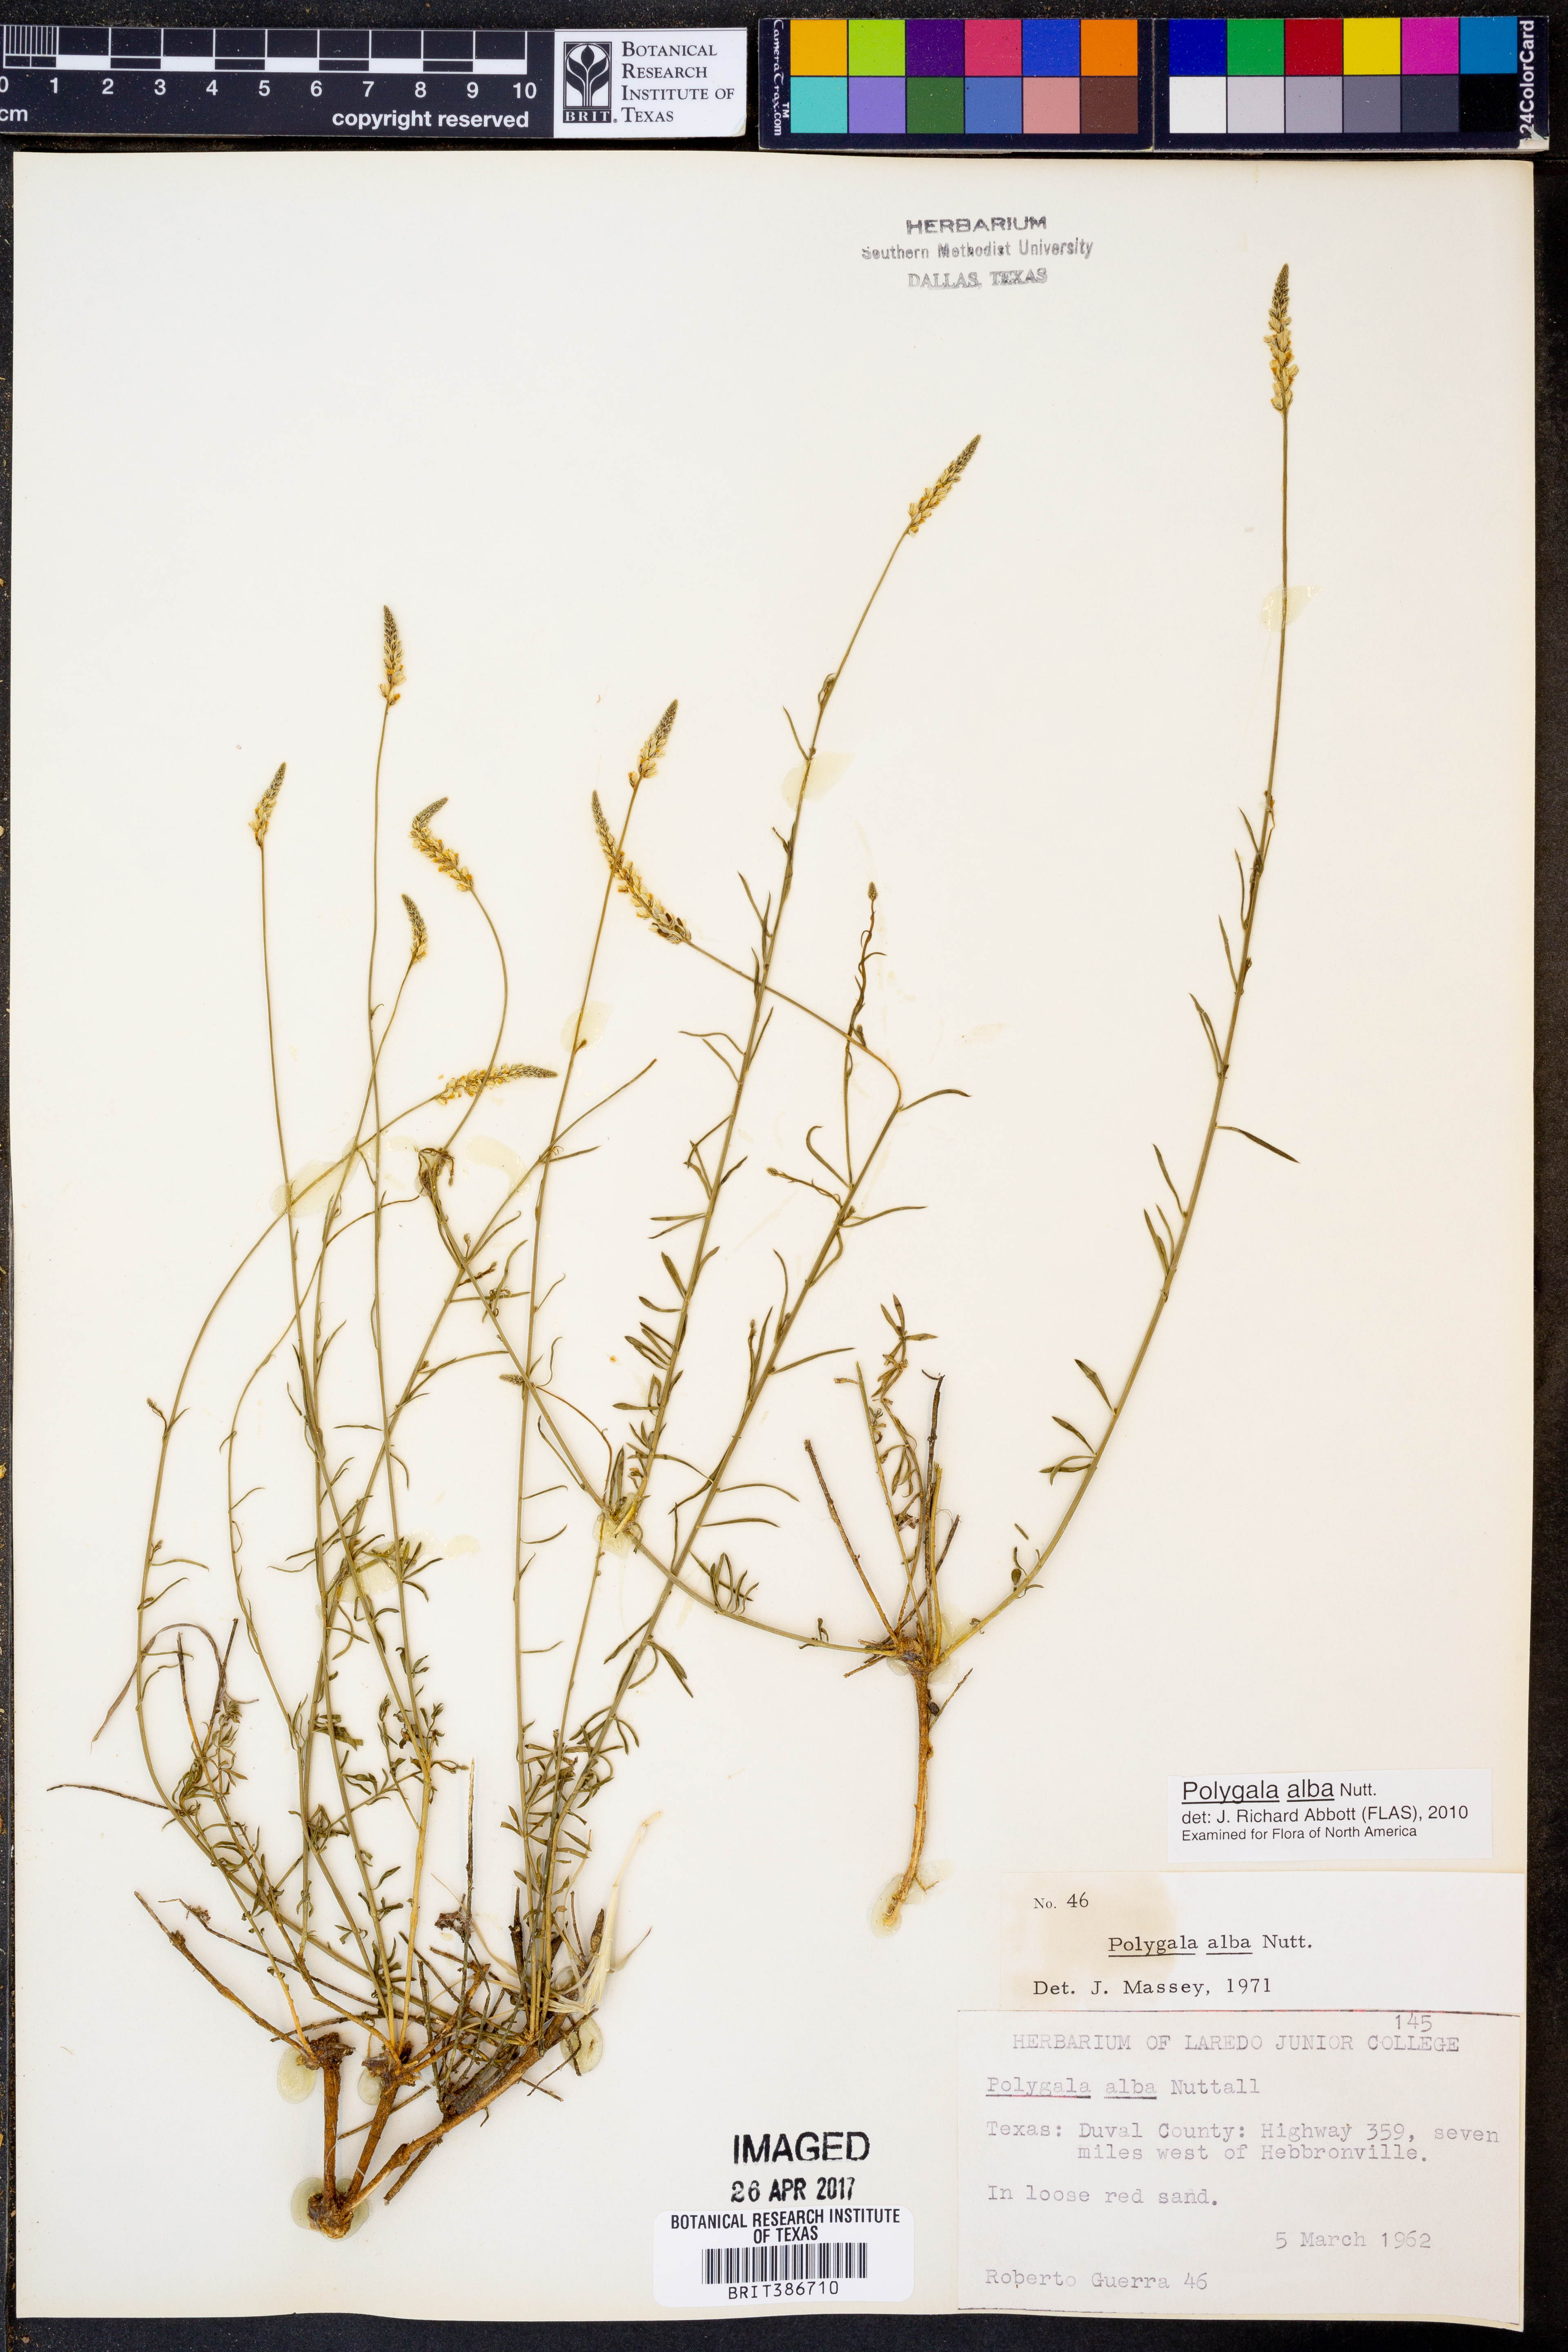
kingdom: Plantae
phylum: Tracheophyta
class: Magnoliopsida
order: Fabales
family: Polygalaceae
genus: Polygala
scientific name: Polygala alba
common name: White milkwort
